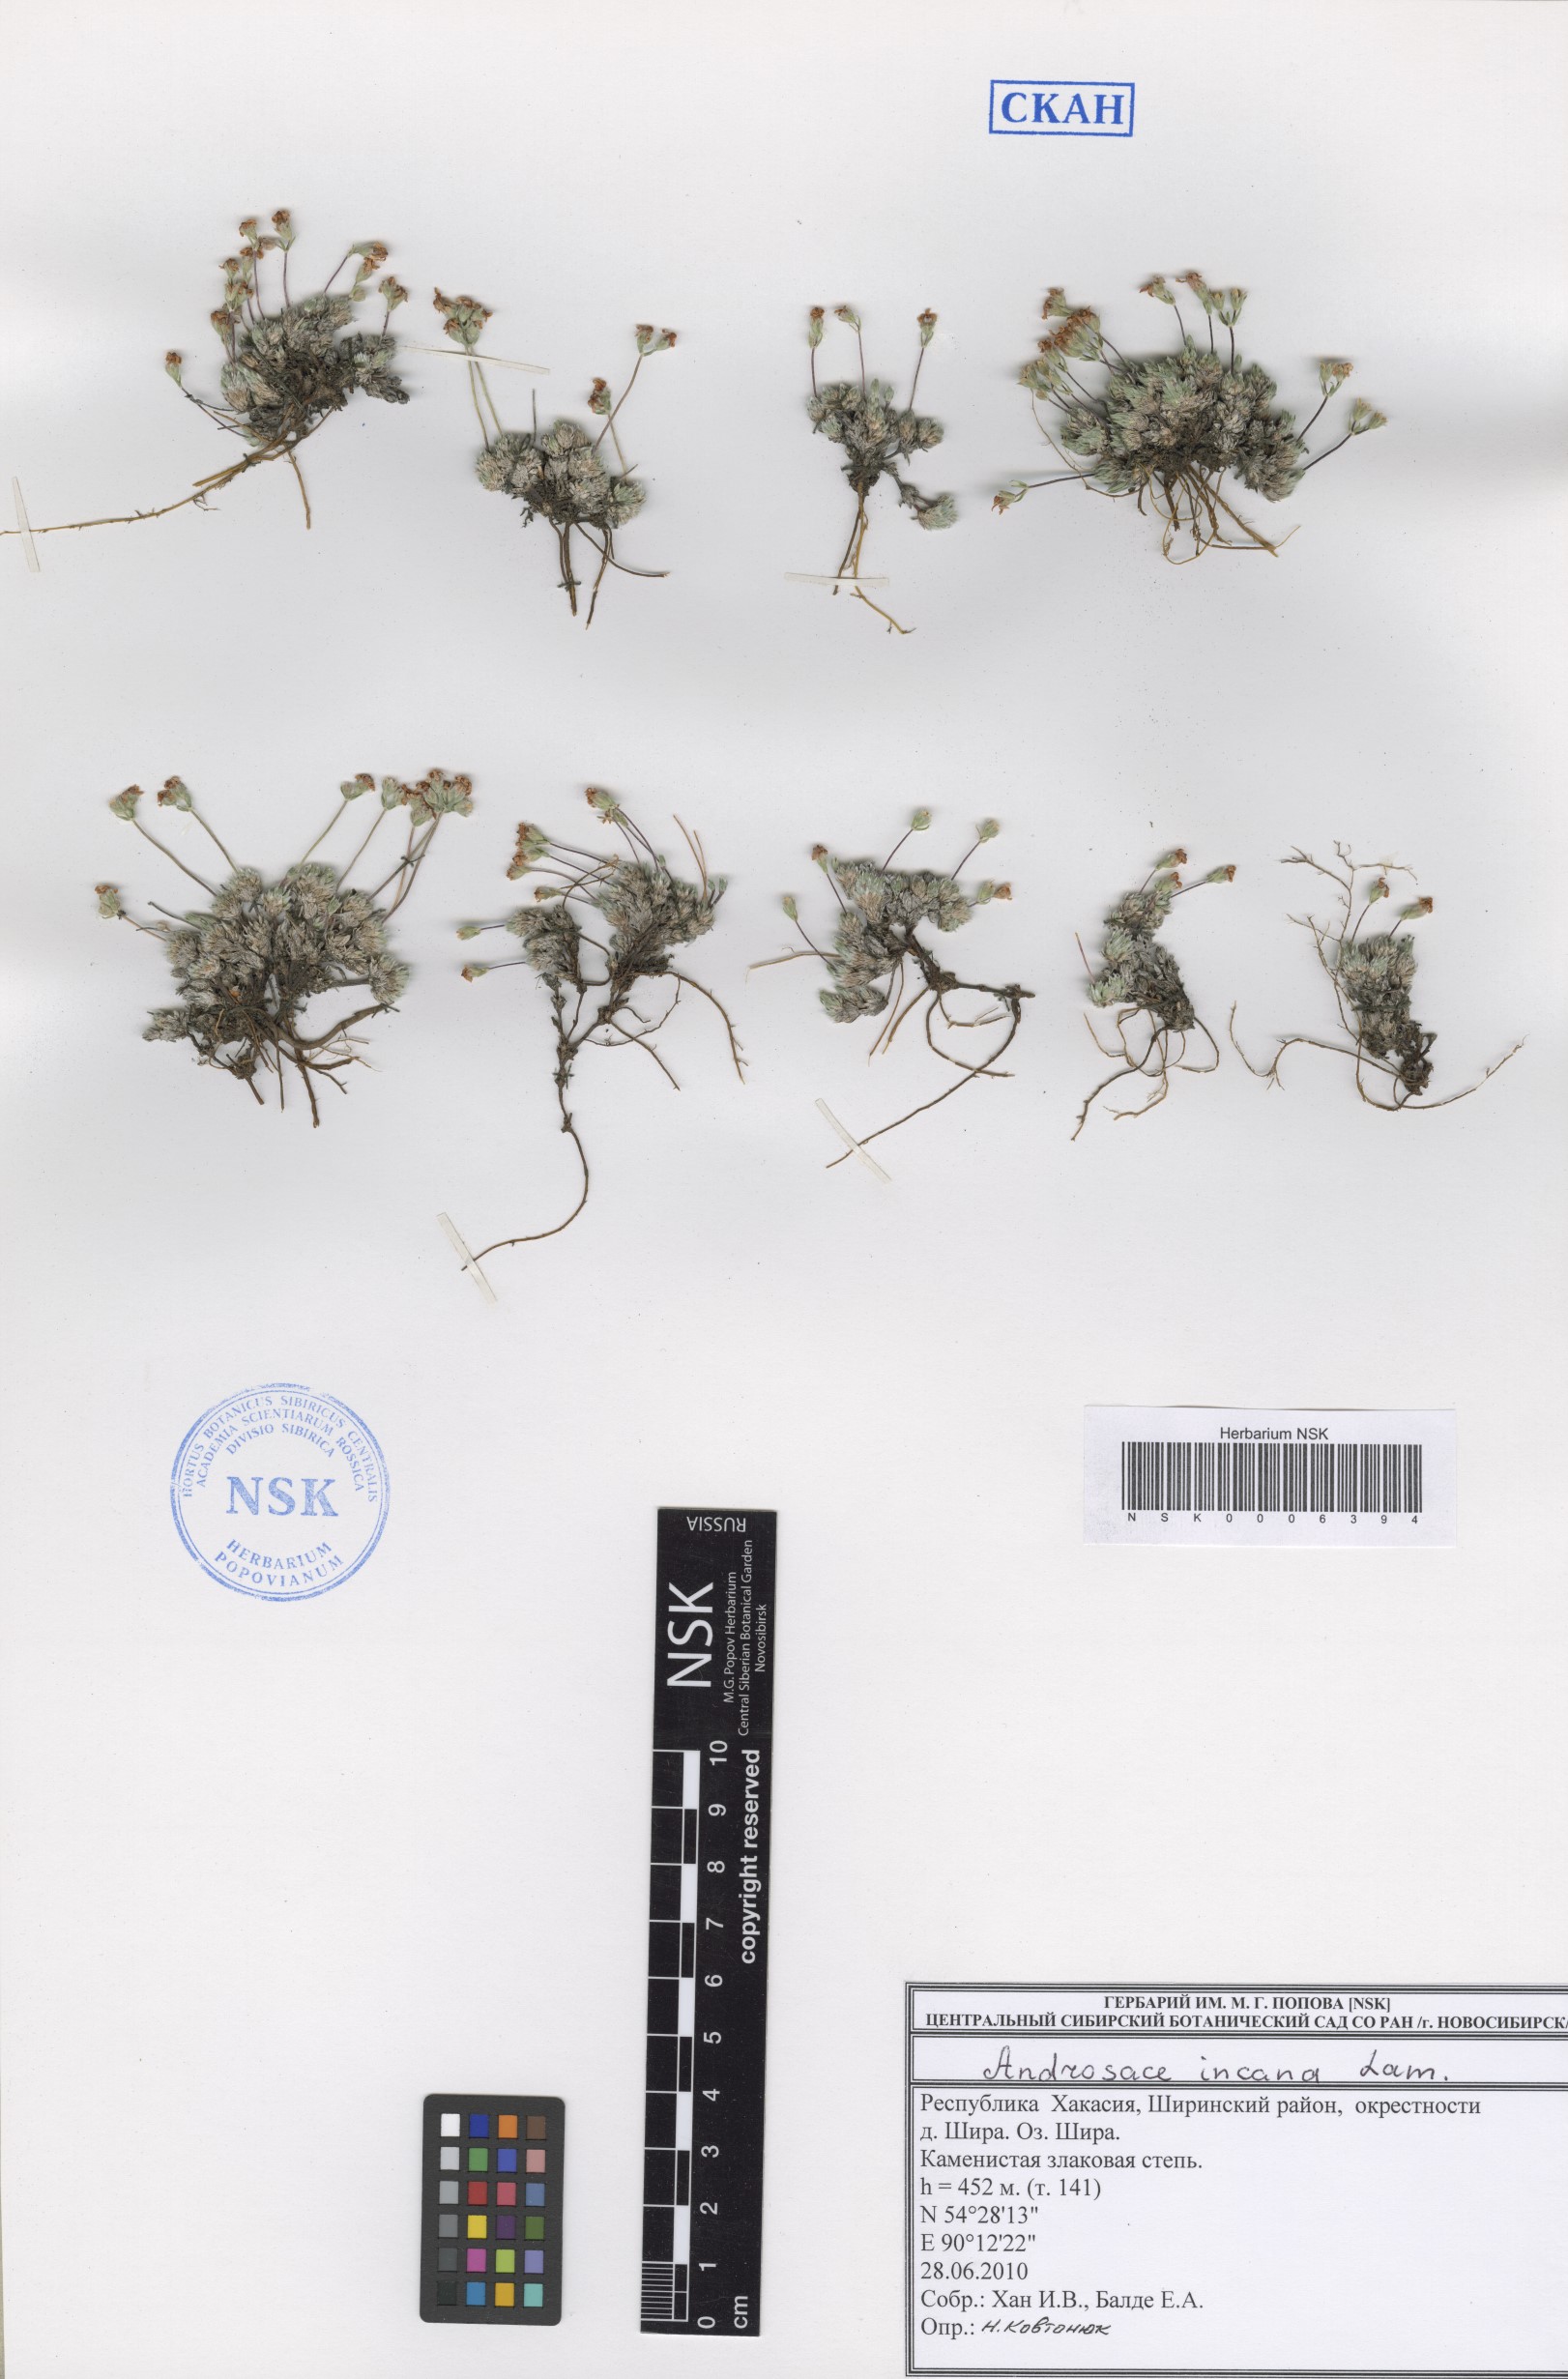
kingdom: Plantae
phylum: Tracheophyta
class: Magnoliopsida
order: Ericales
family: Primulaceae
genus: Androsace
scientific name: Androsace incana
